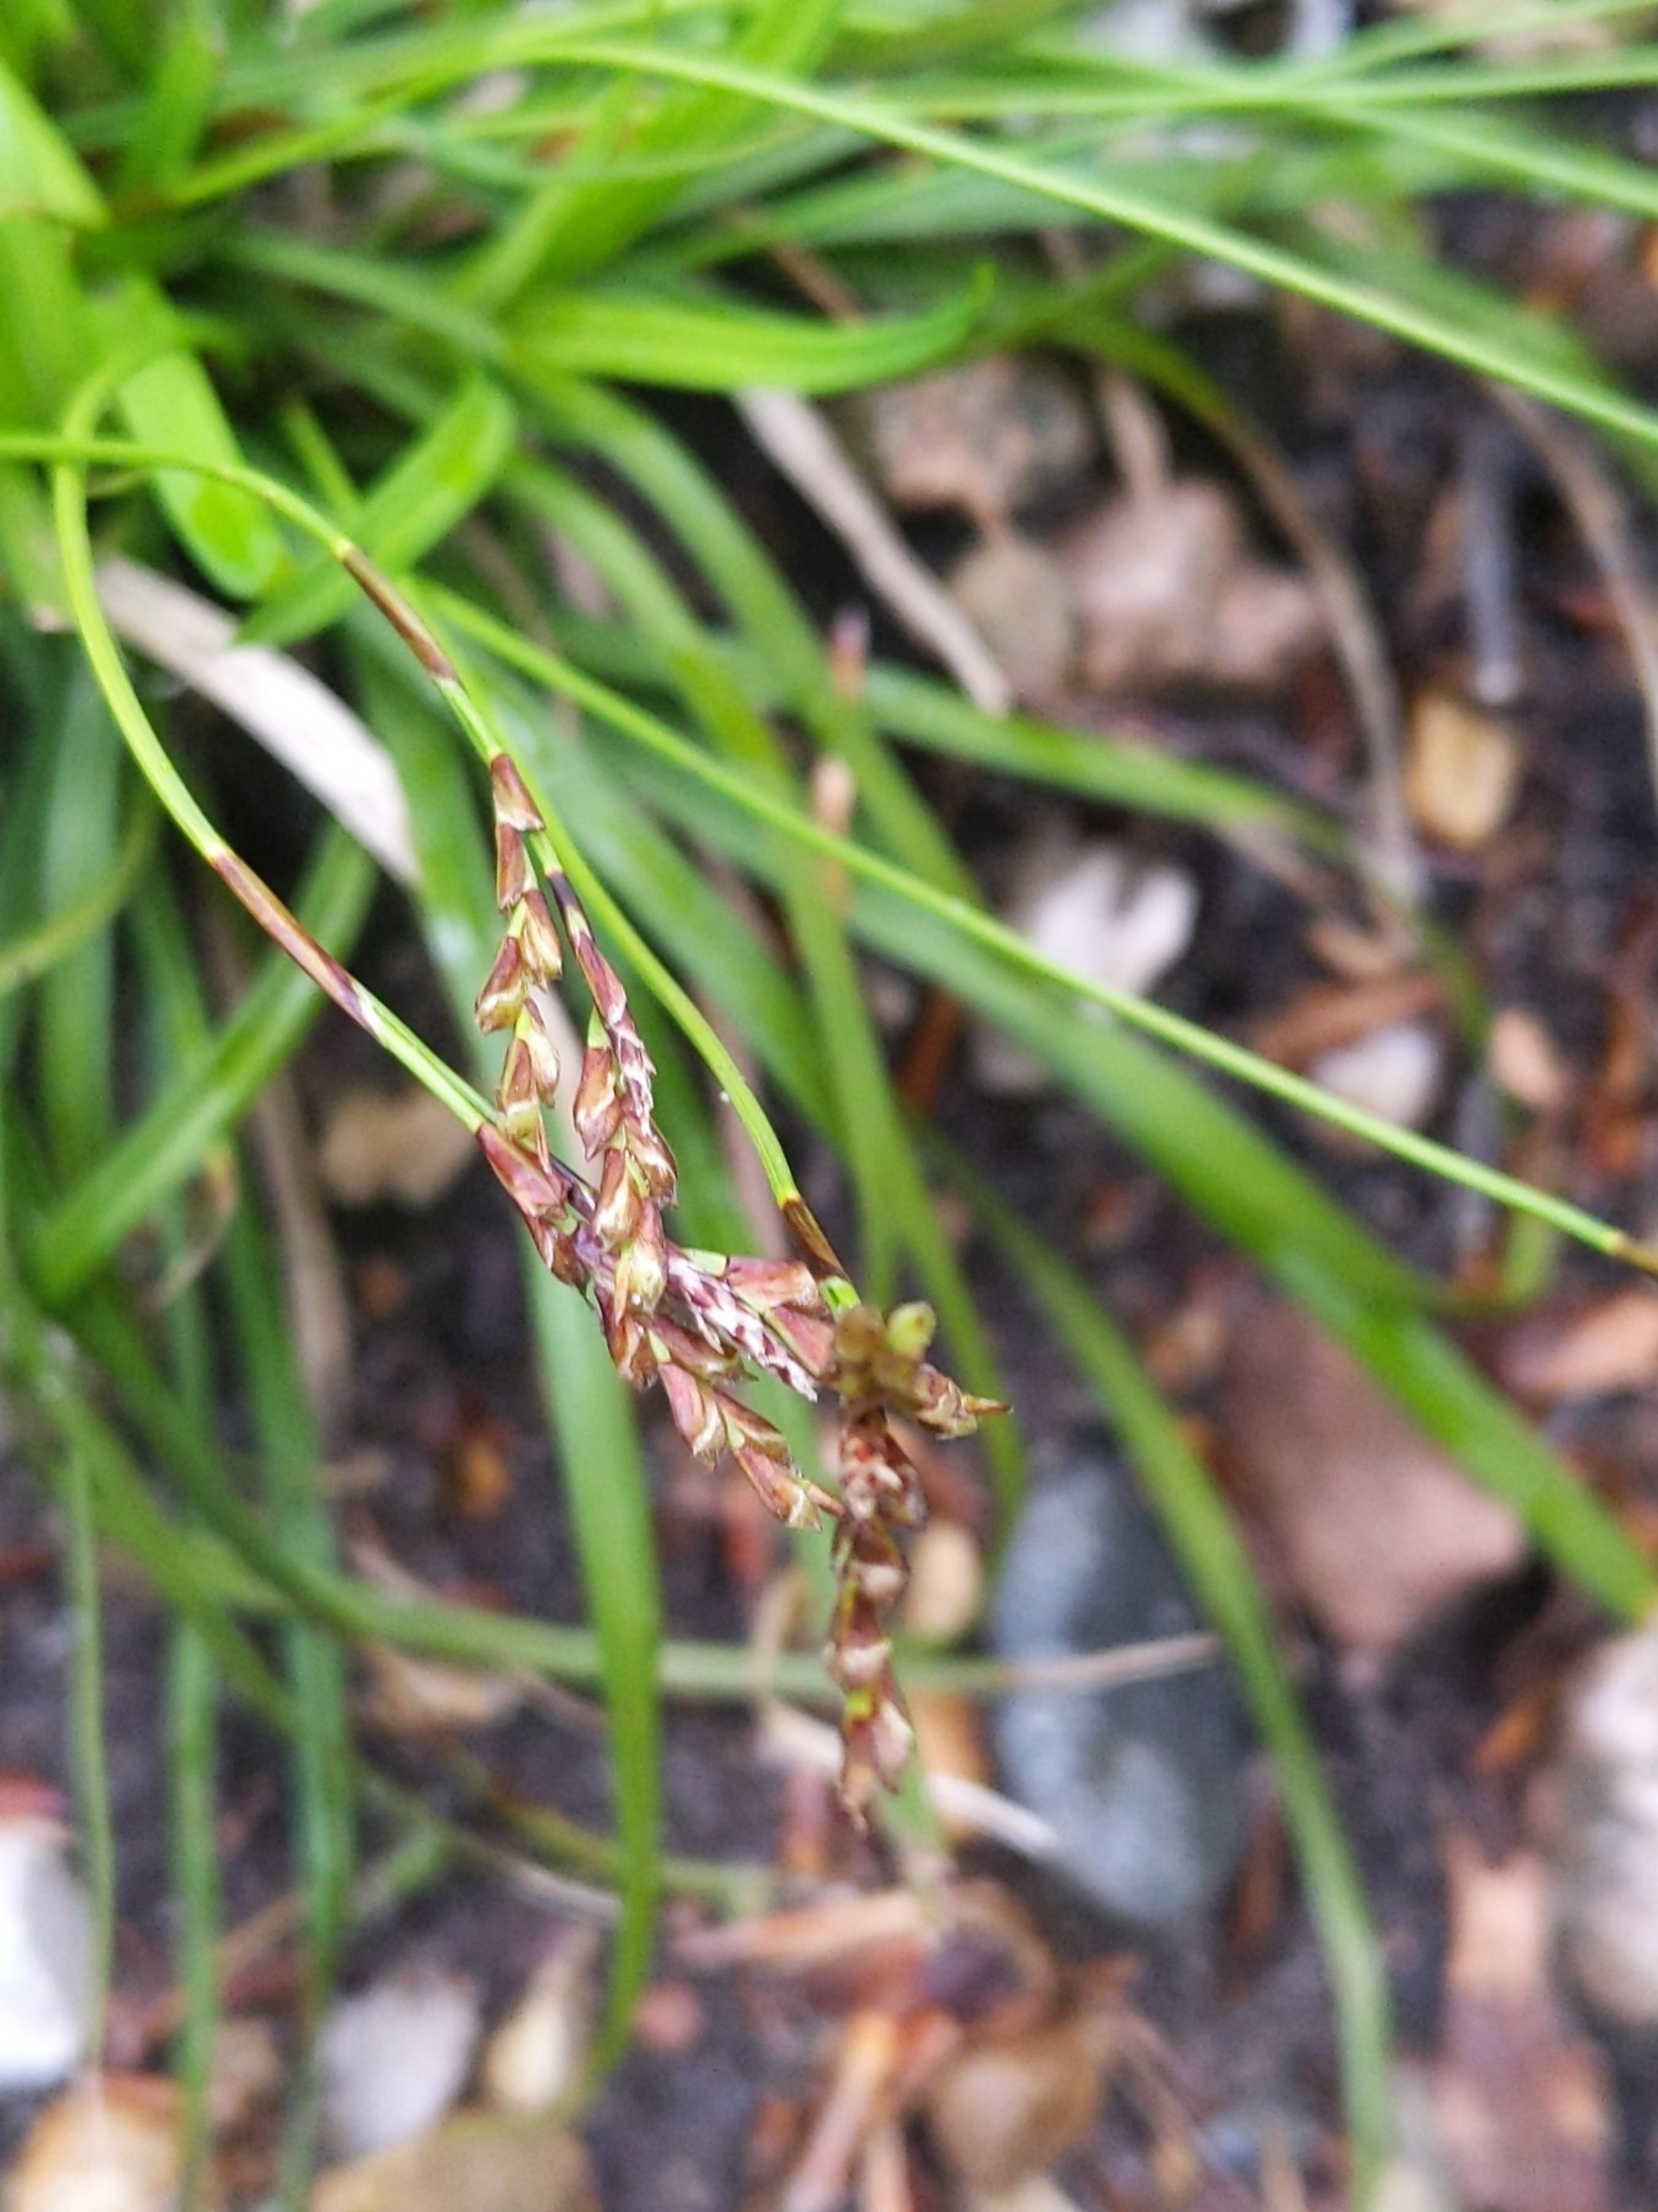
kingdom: Plantae
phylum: Tracheophyta
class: Liliopsida
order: Poales
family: Cyperaceae
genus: Carex
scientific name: Carex digitata
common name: Finger-star
